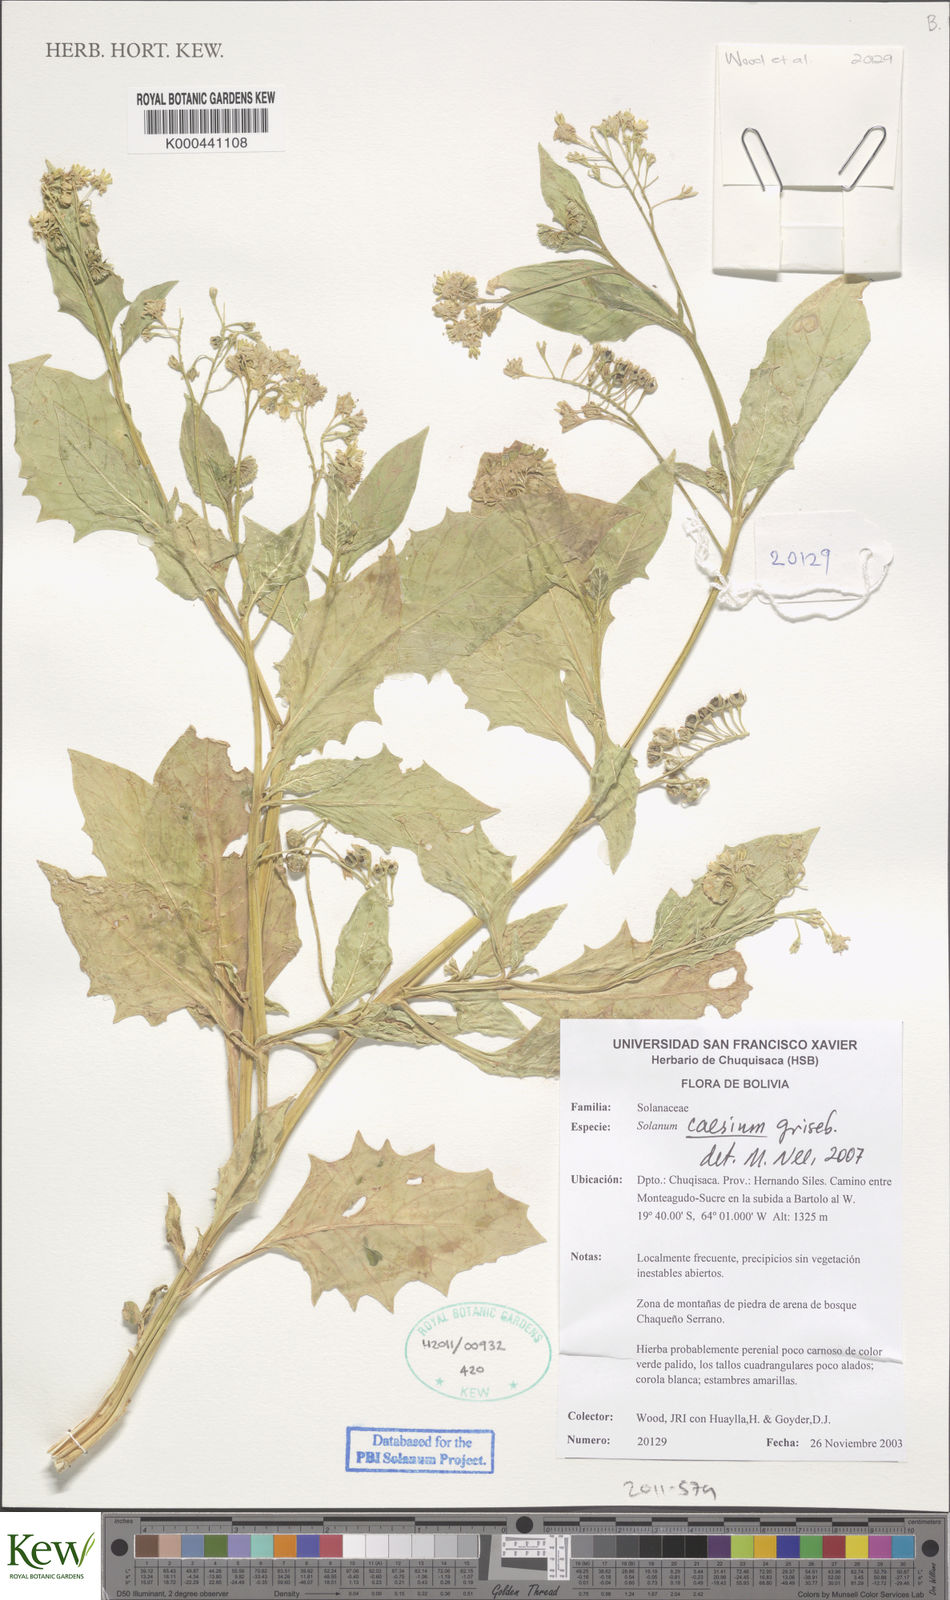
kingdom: Plantae
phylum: Tracheophyta
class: Magnoliopsida
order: Solanales
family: Solanaceae
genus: Solanum
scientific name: Solanum caesium
